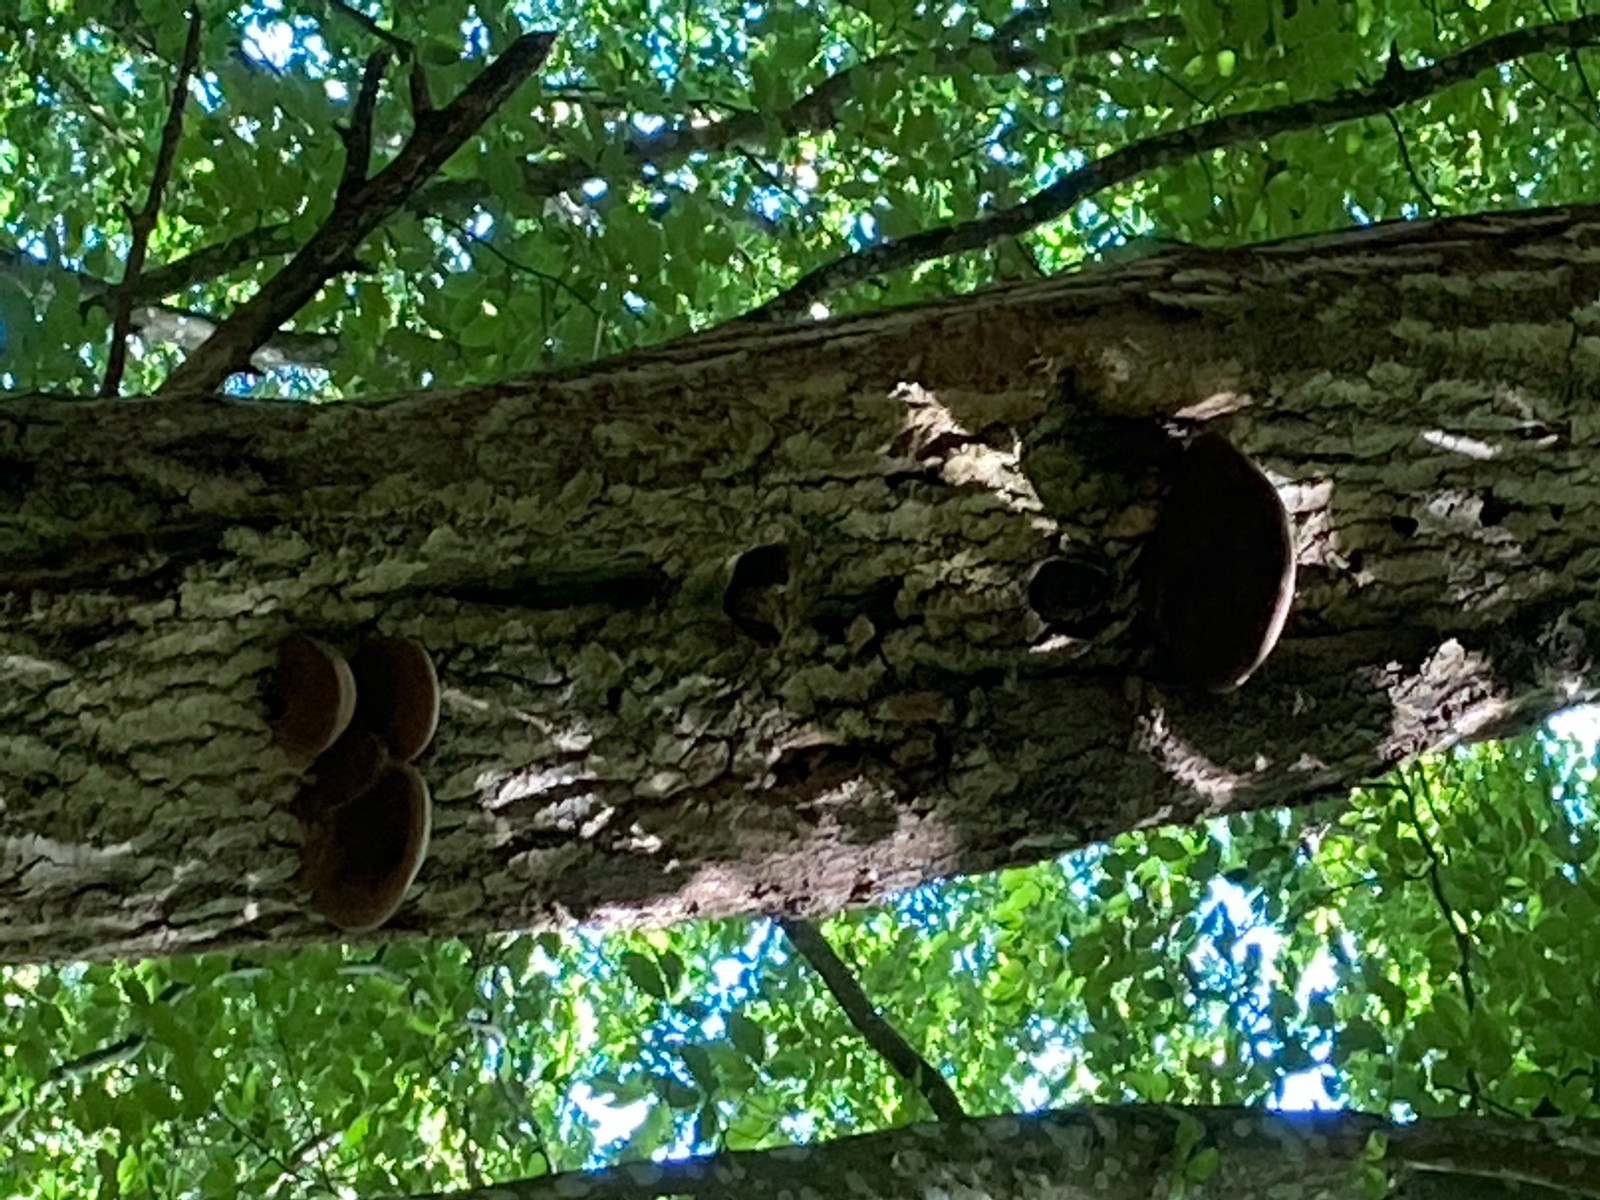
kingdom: Fungi
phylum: Basidiomycota
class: Agaricomycetes
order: Hymenochaetales
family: Hymenochaetaceae
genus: Phellinus
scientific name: Phellinus populicola
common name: poppel-ildporesvamp
